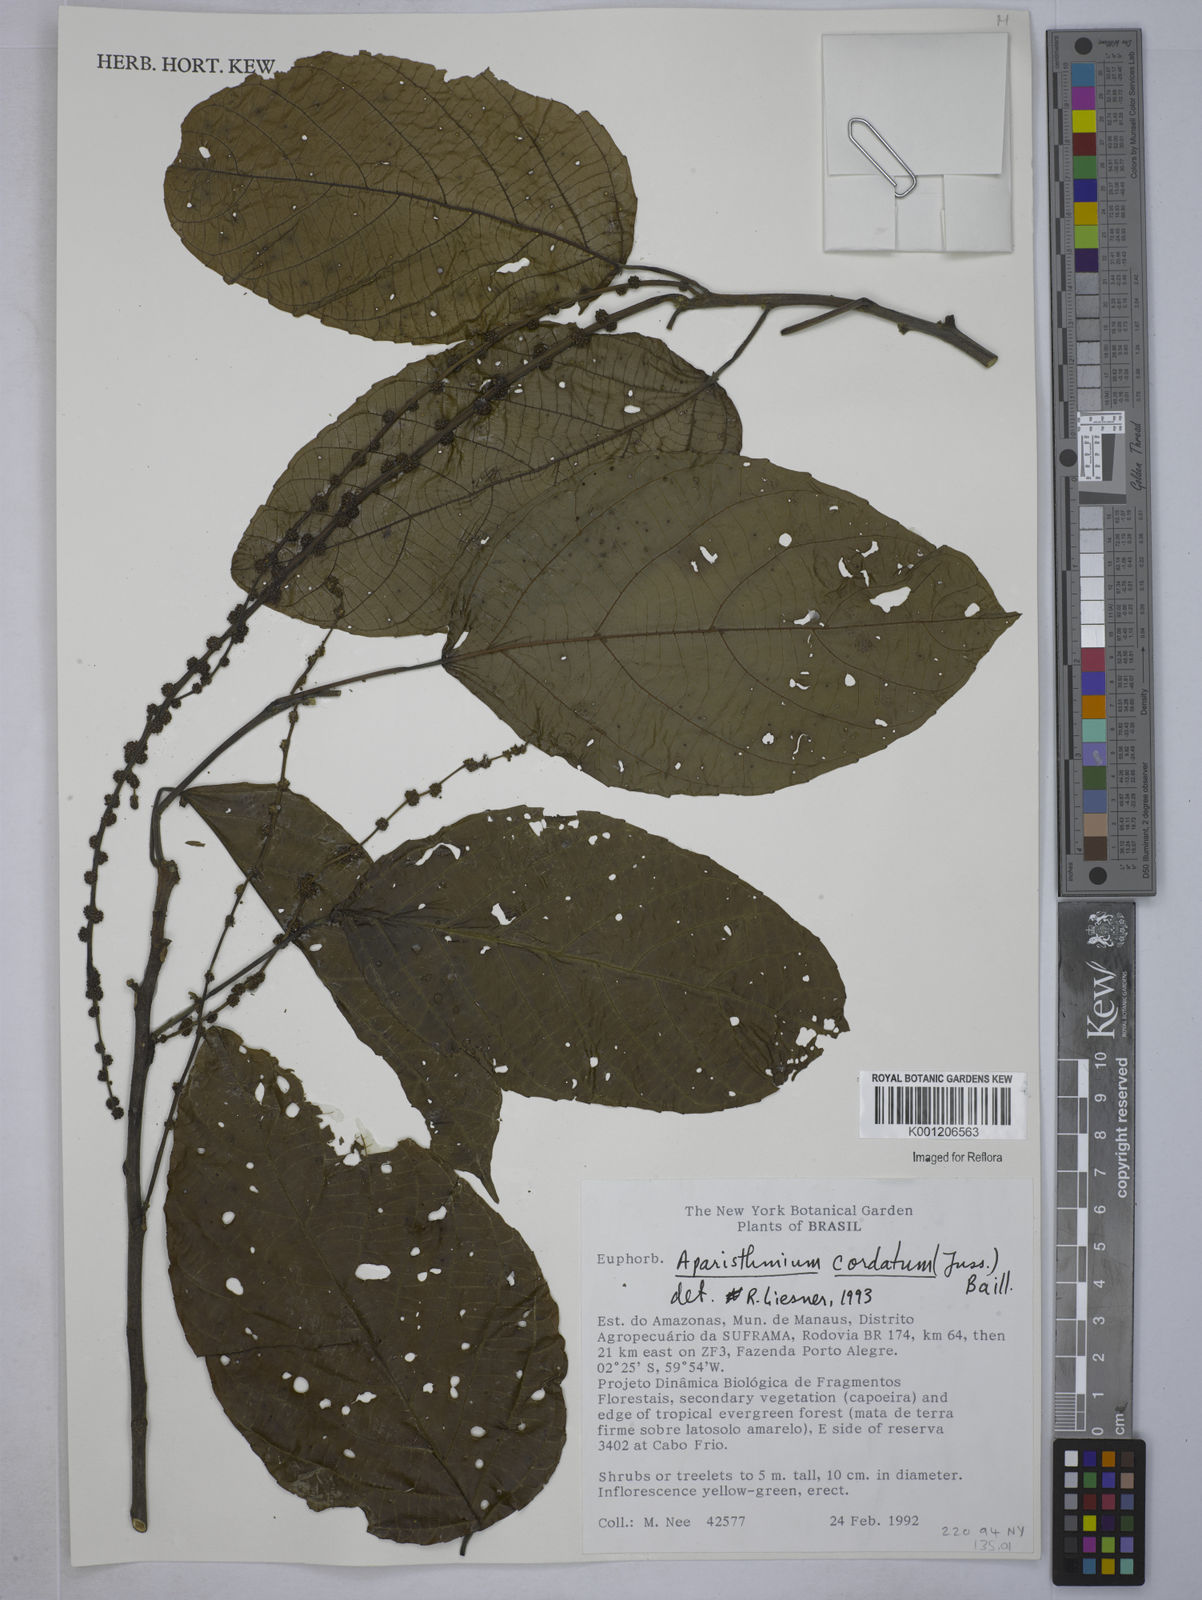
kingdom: Plantae
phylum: Tracheophyta
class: Magnoliopsida
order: Malpighiales
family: Euphorbiaceae
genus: Aparisthmium
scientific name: Aparisthmium cordatum
